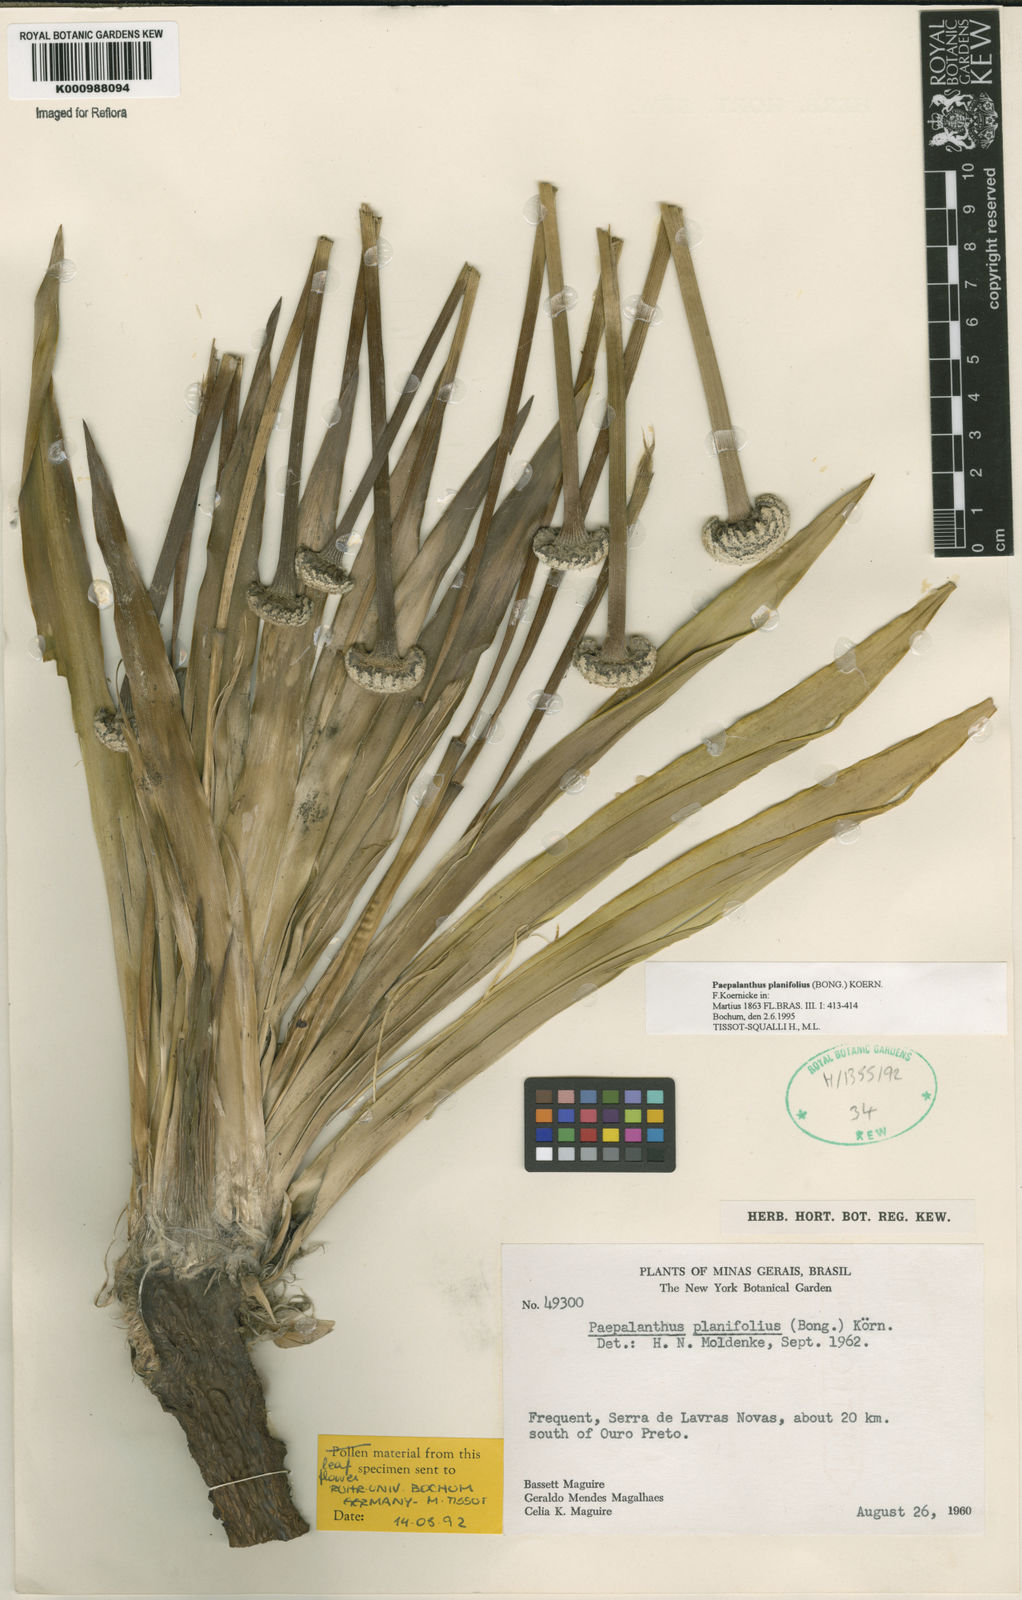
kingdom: Plantae
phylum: Tracheophyta
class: Liliopsida
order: Poales
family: Eriocaulaceae
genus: Paepalanthus
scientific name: Paepalanthus
